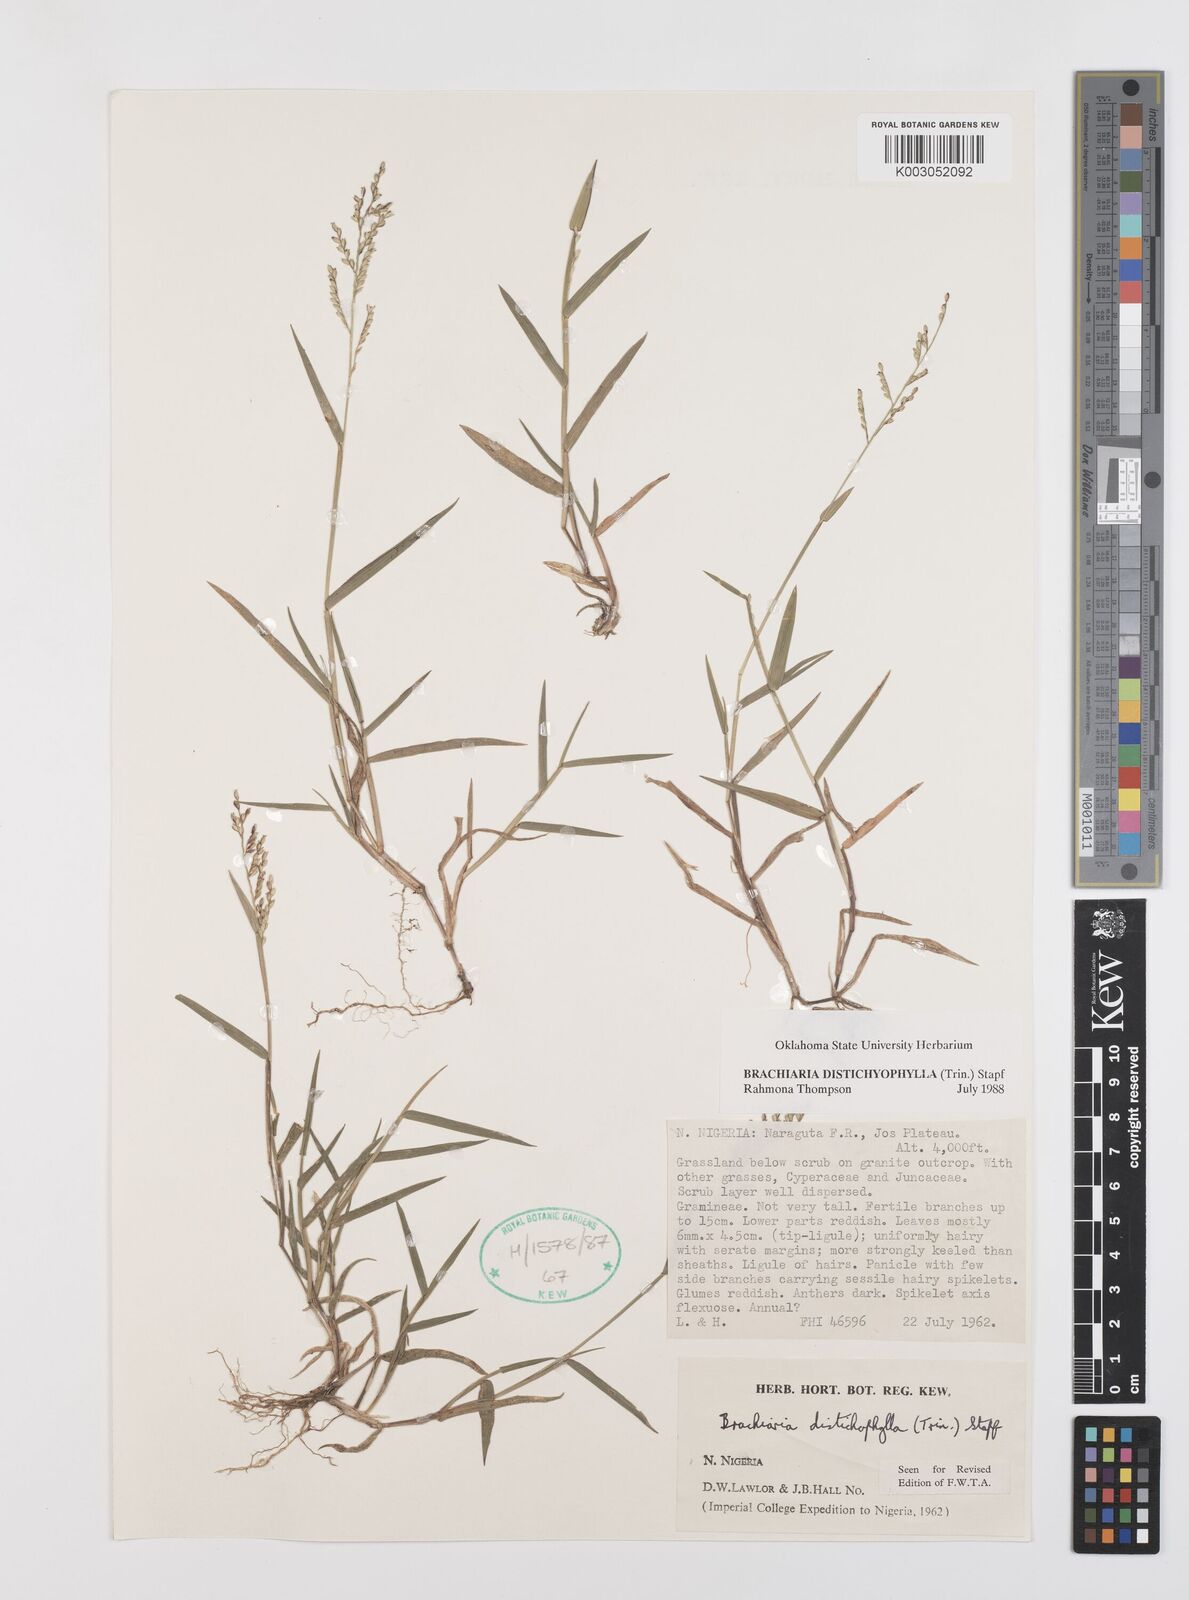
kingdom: Plantae
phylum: Tracheophyta
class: Liliopsida
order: Poales
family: Poaceae
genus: Urochloa
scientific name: Urochloa villosa
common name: Hairy signalgrass
